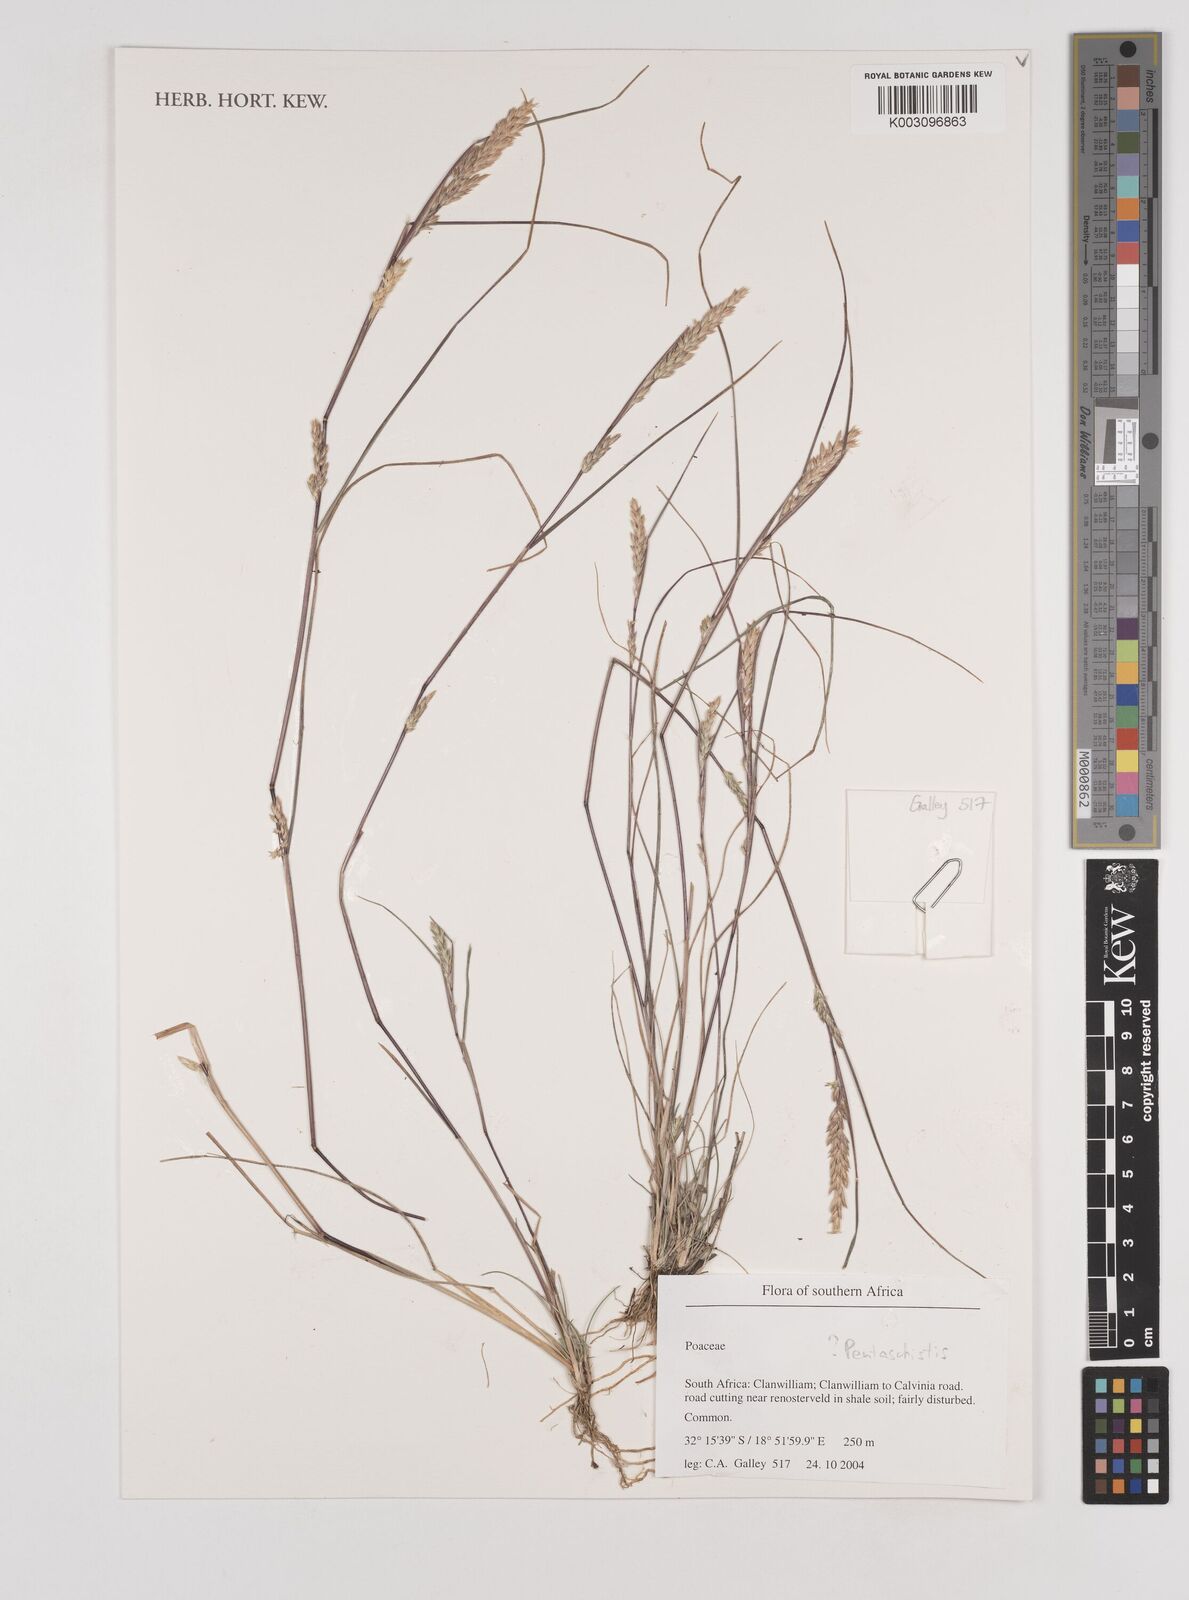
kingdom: Plantae
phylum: Tracheophyta
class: Liliopsida
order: Poales
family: Poaceae
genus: Pentaschistis
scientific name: Pentaschistis
